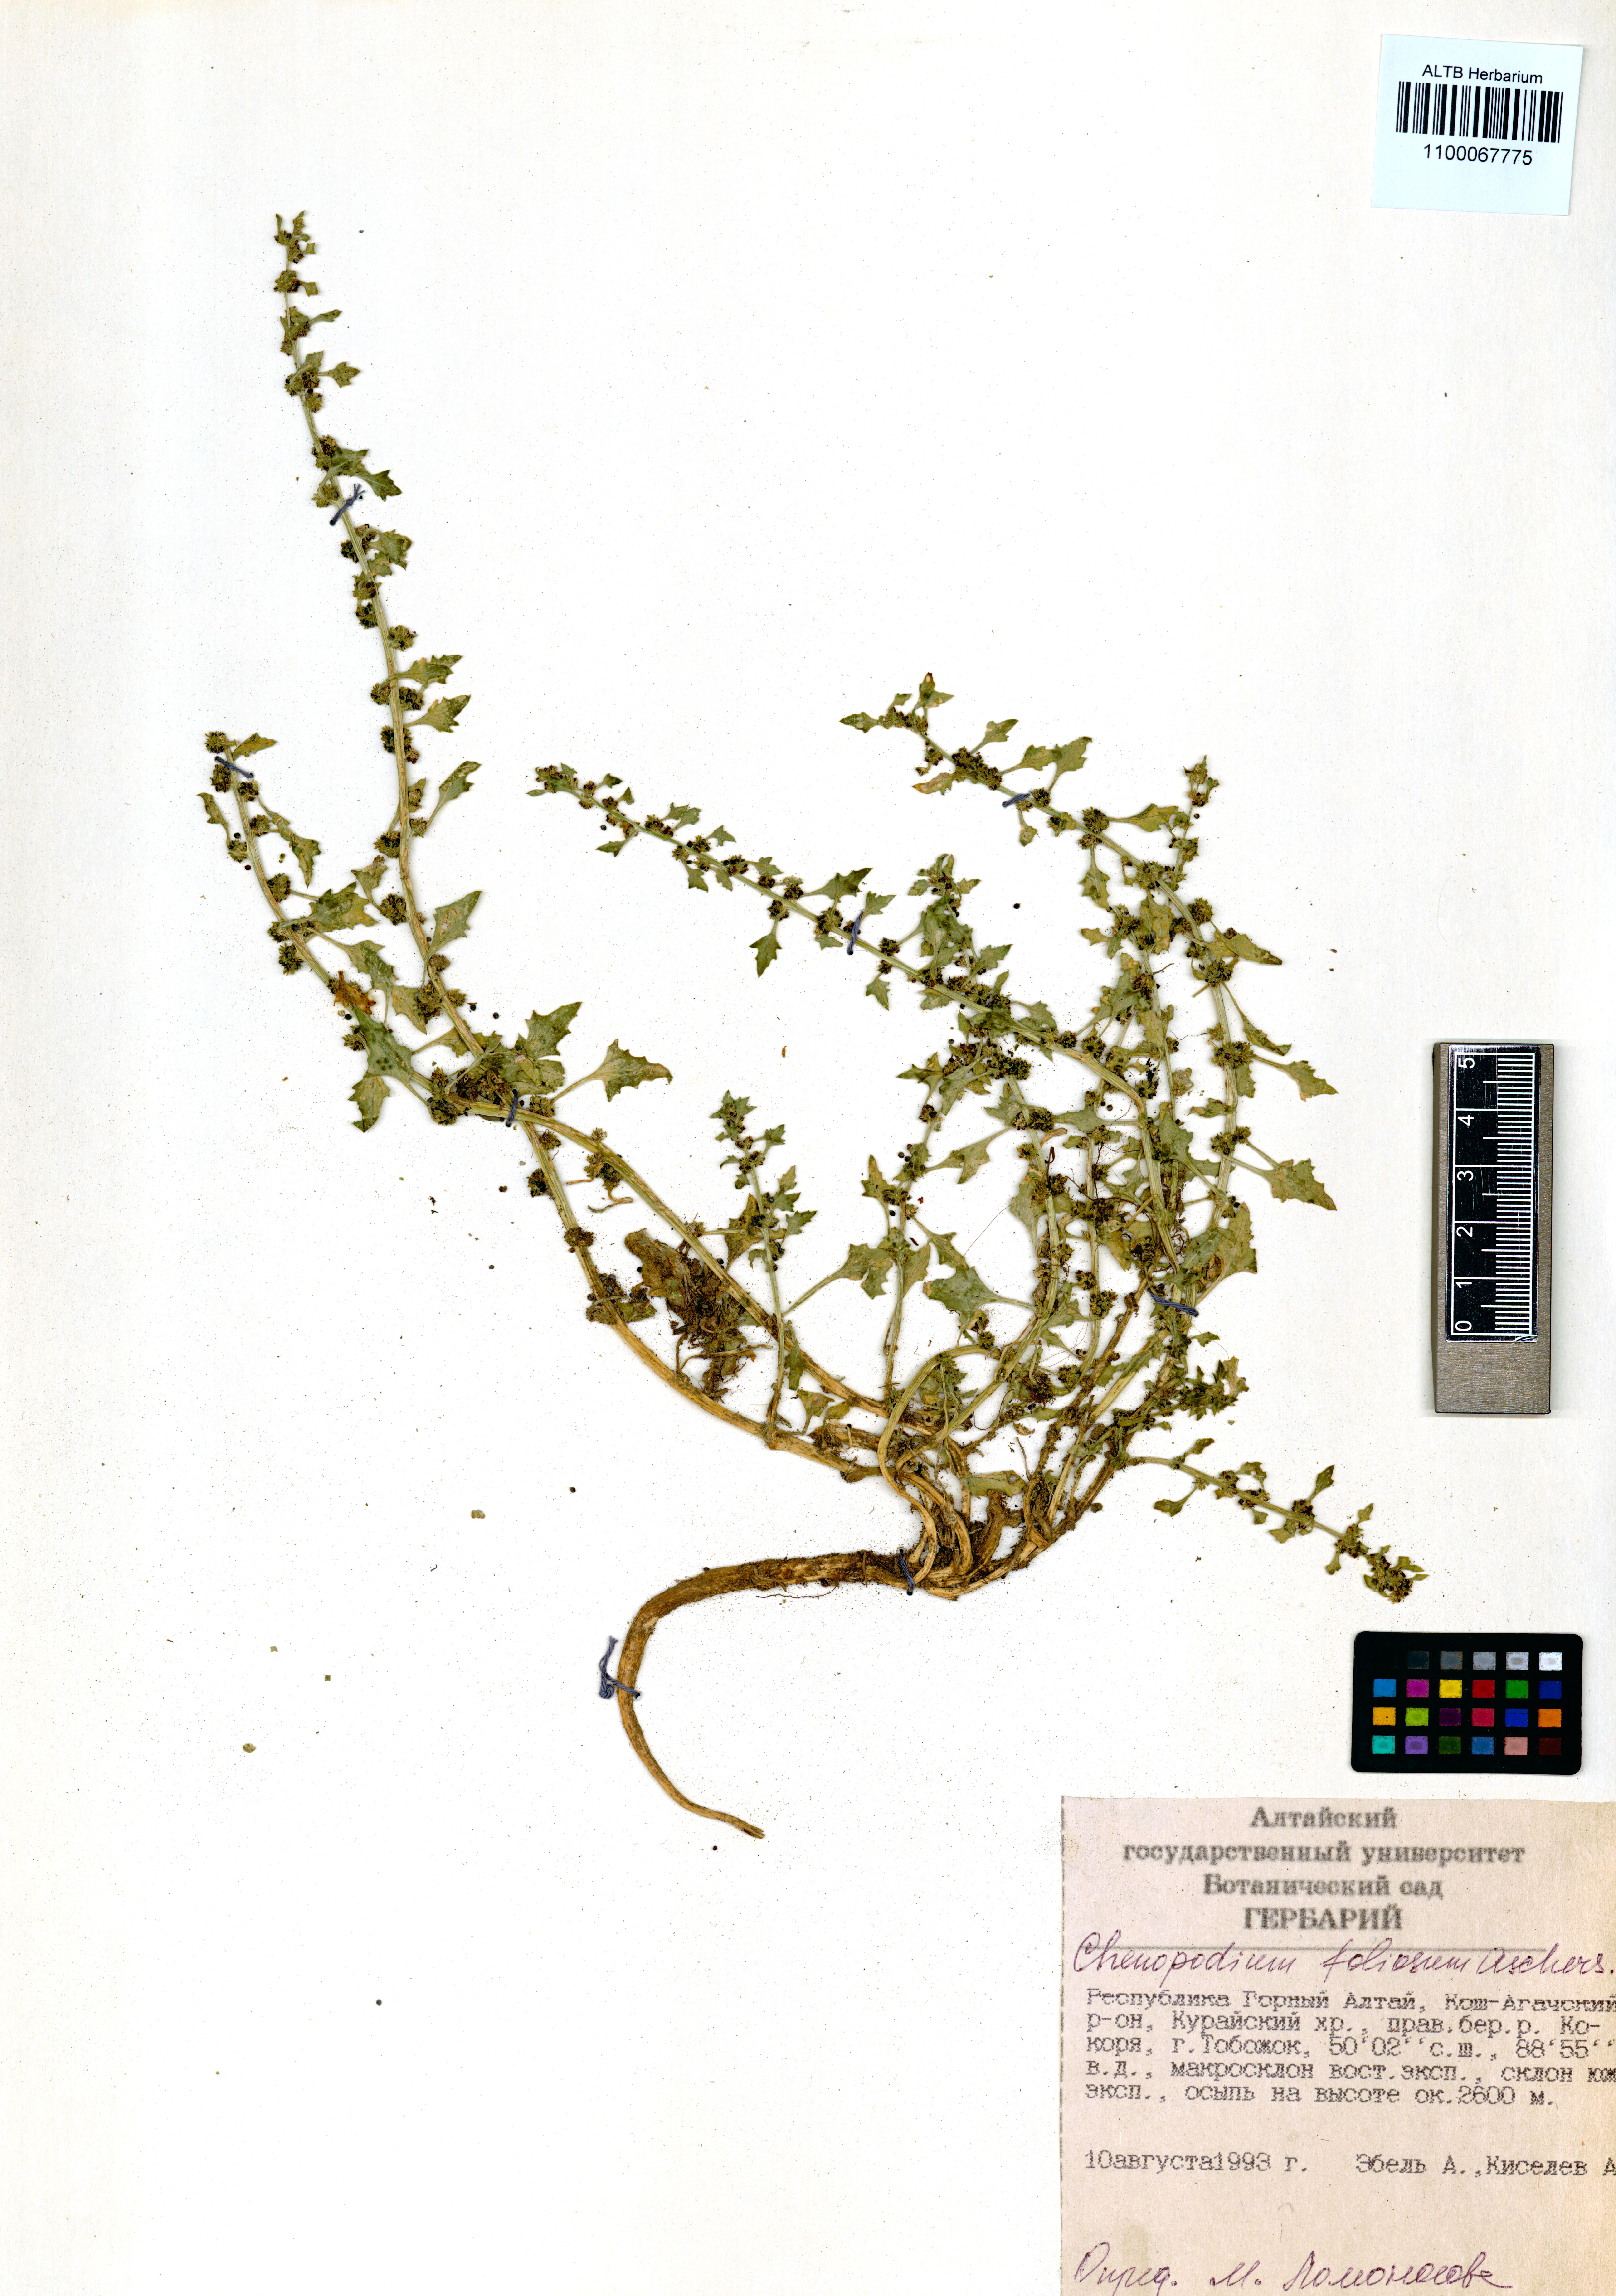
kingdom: Plantae
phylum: Tracheophyta
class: Magnoliopsida
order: Caryophyllales
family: Amaranthaceae
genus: Blitum
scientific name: Blitum virgatum
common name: Strawberry goosefoot
